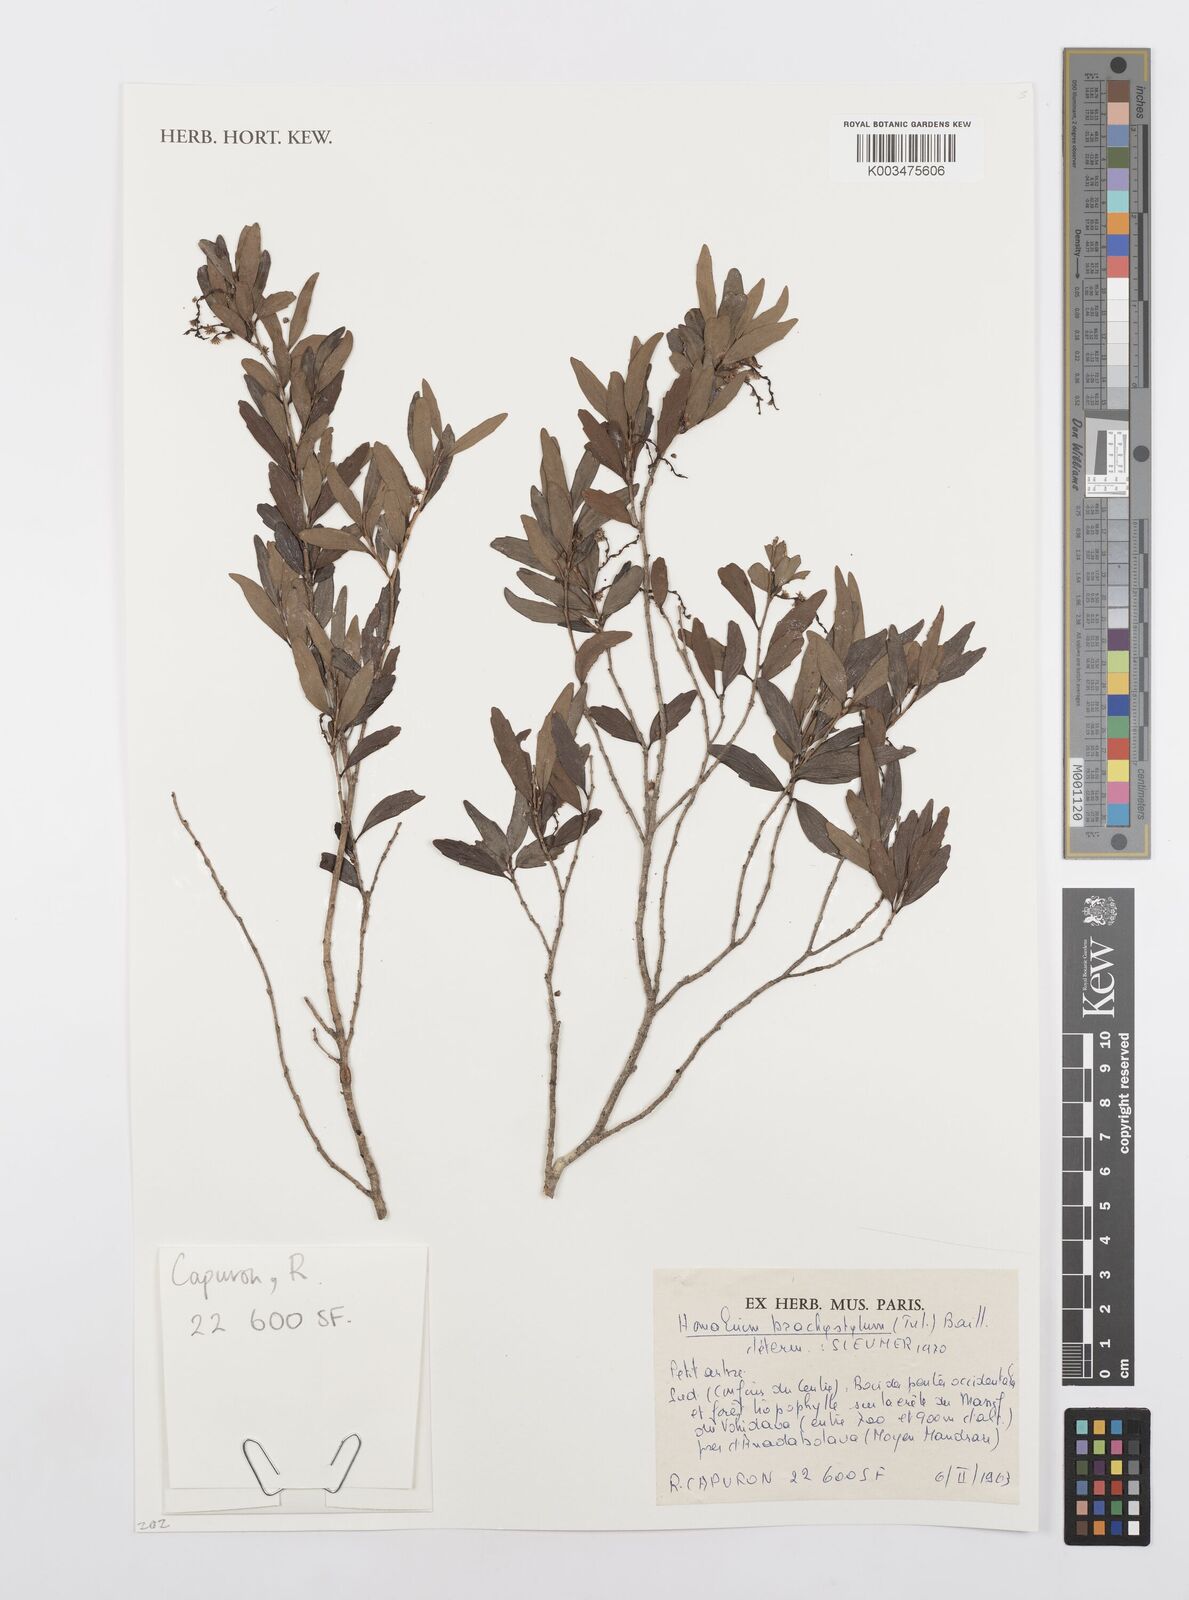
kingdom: Plantae
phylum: Tracheophyta
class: Magnoliopsida
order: Malpighiales
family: Salicaceae
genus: Homalium
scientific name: Homalium brachystylis
